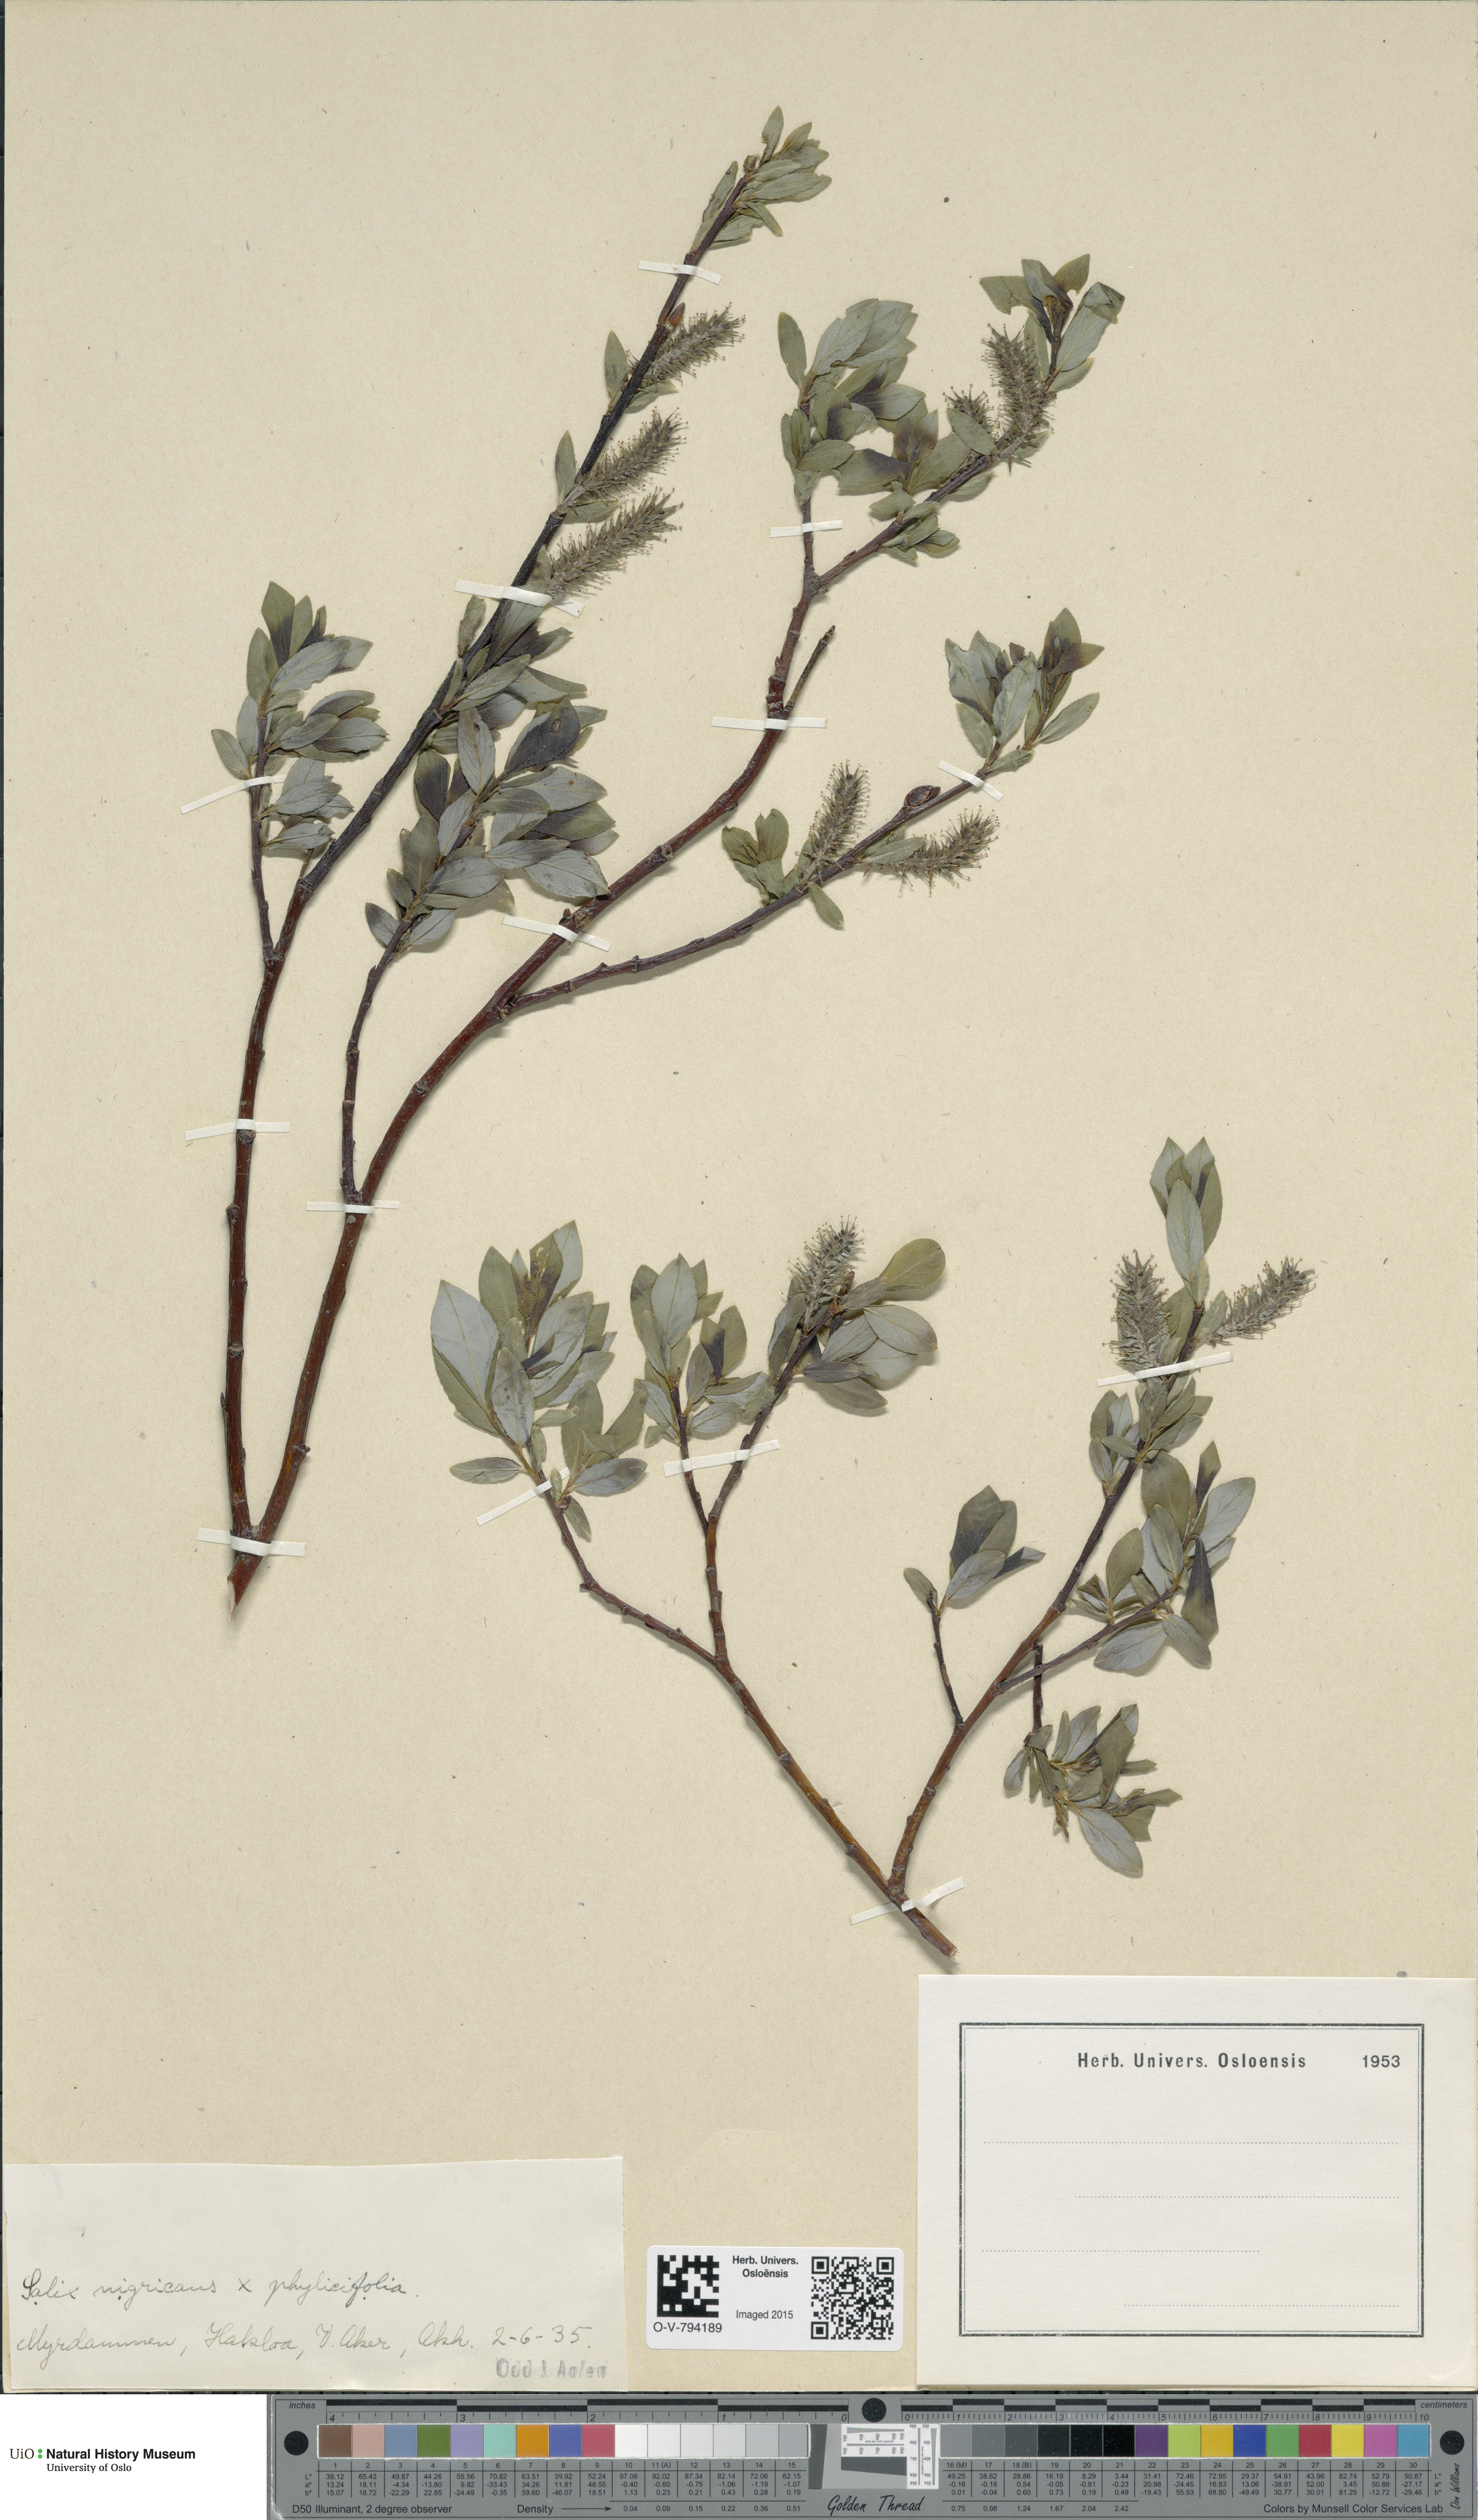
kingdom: Plantae
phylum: Tracheophyta
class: Magnoliopsida
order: Malpighiales
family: Salicaceae
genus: Salix
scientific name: Salix
